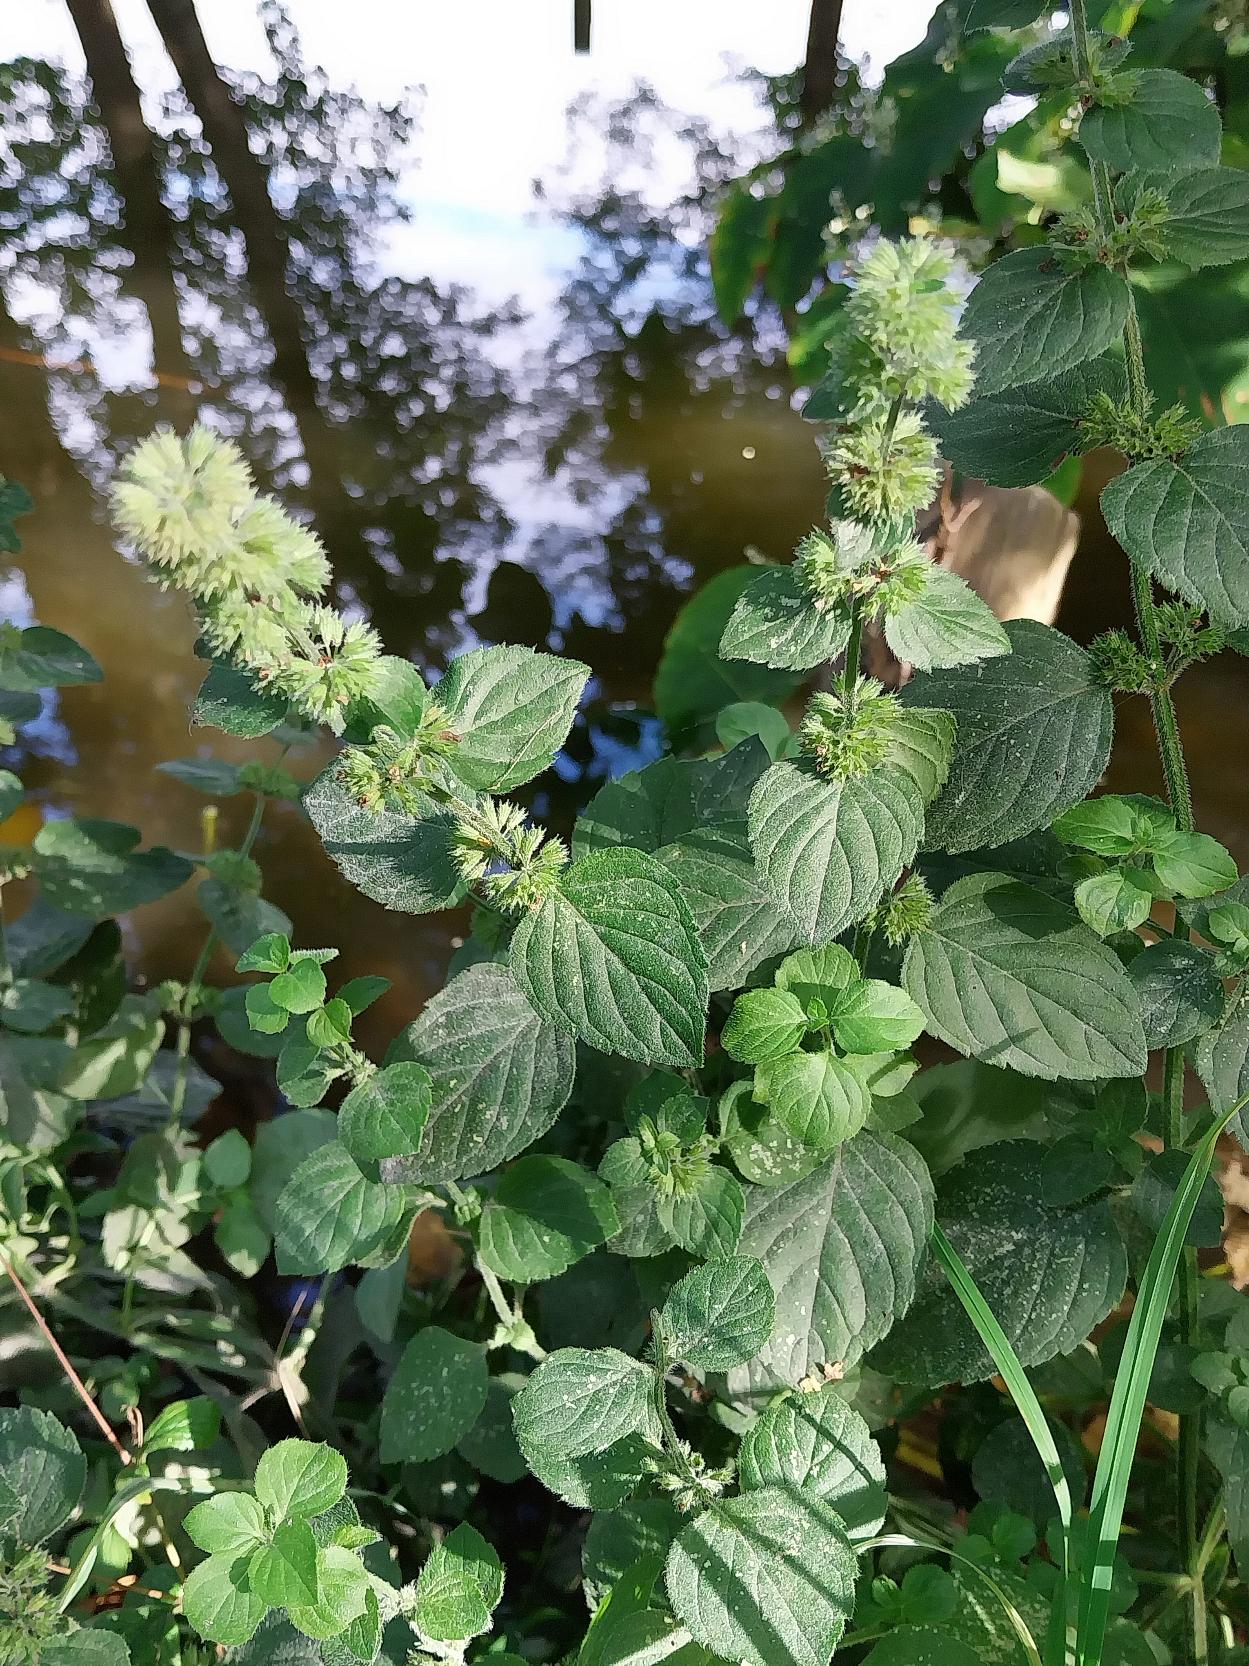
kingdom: Plantae
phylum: Tracheophyta
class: Magnoliopsida
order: Lamiales
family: Lamiaceae
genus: Mentha
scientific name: Mentha verticillata
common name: Krans-mynte
